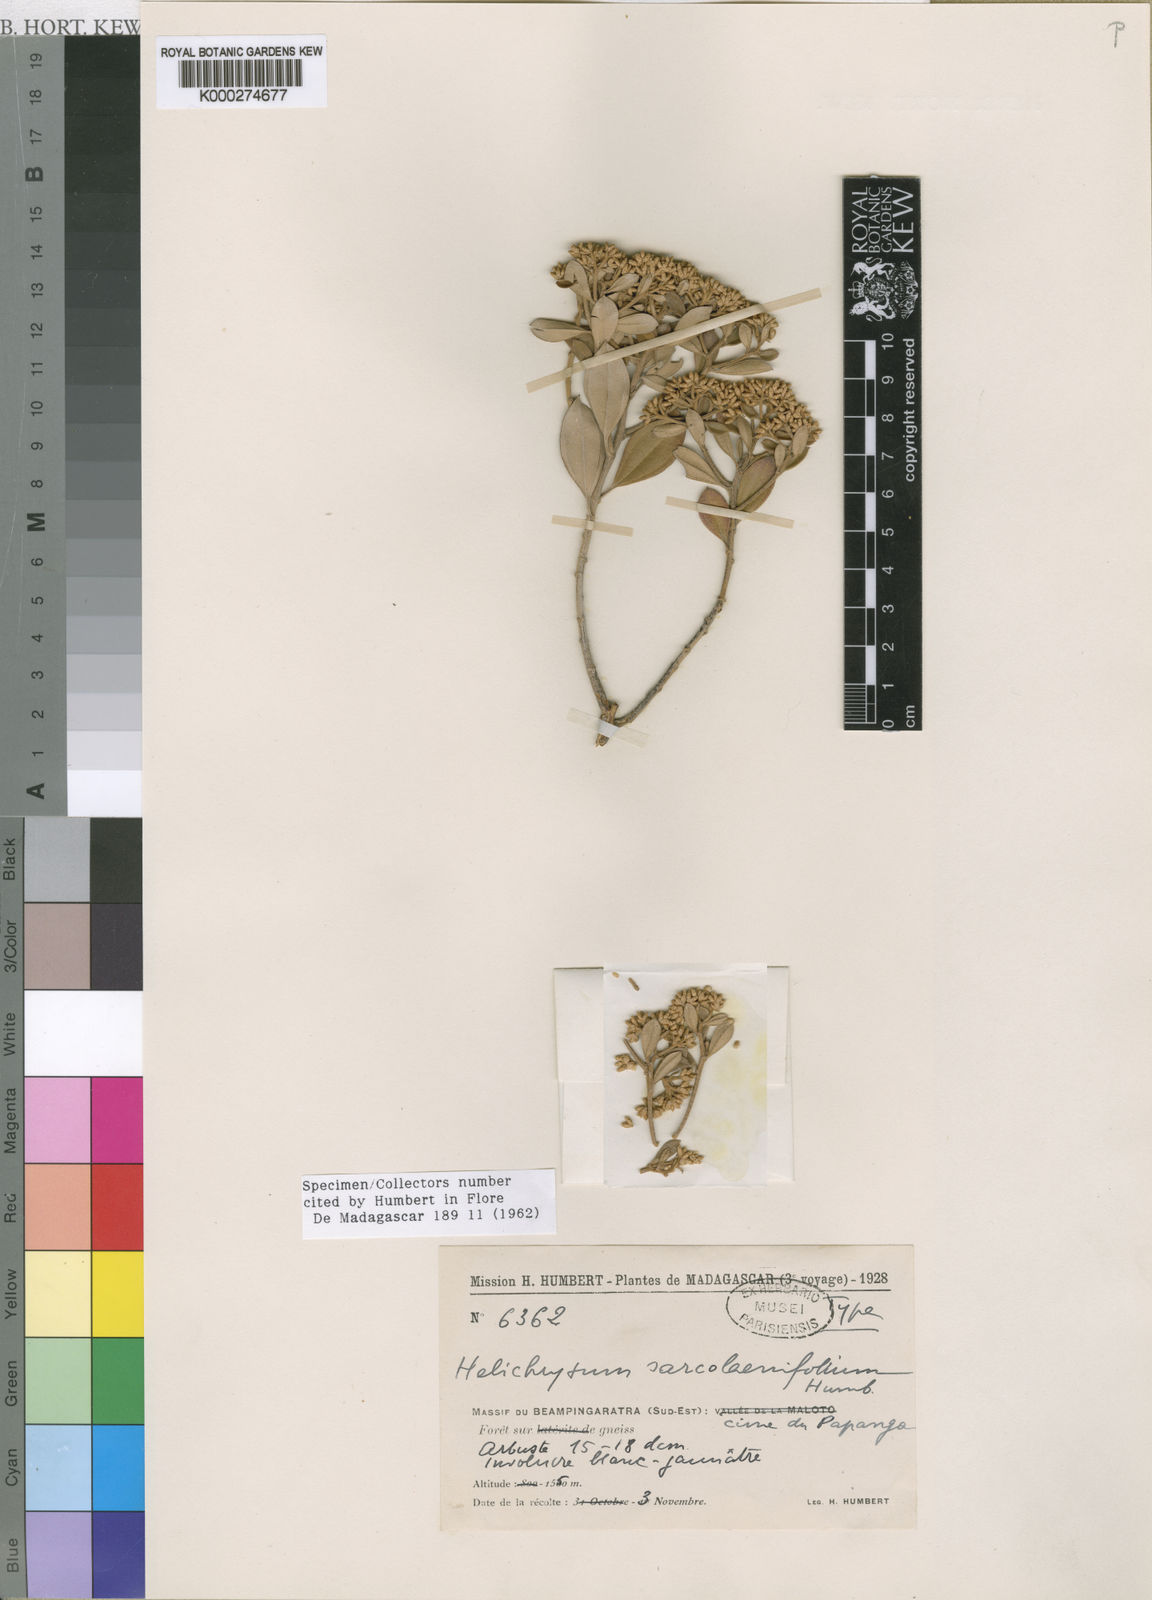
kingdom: Plantae
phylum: Tracheophyta
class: Magnoliopsida
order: Asterales
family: Asteraceae
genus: Helichrysum
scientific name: Helichrysum sarcolaenifolium
